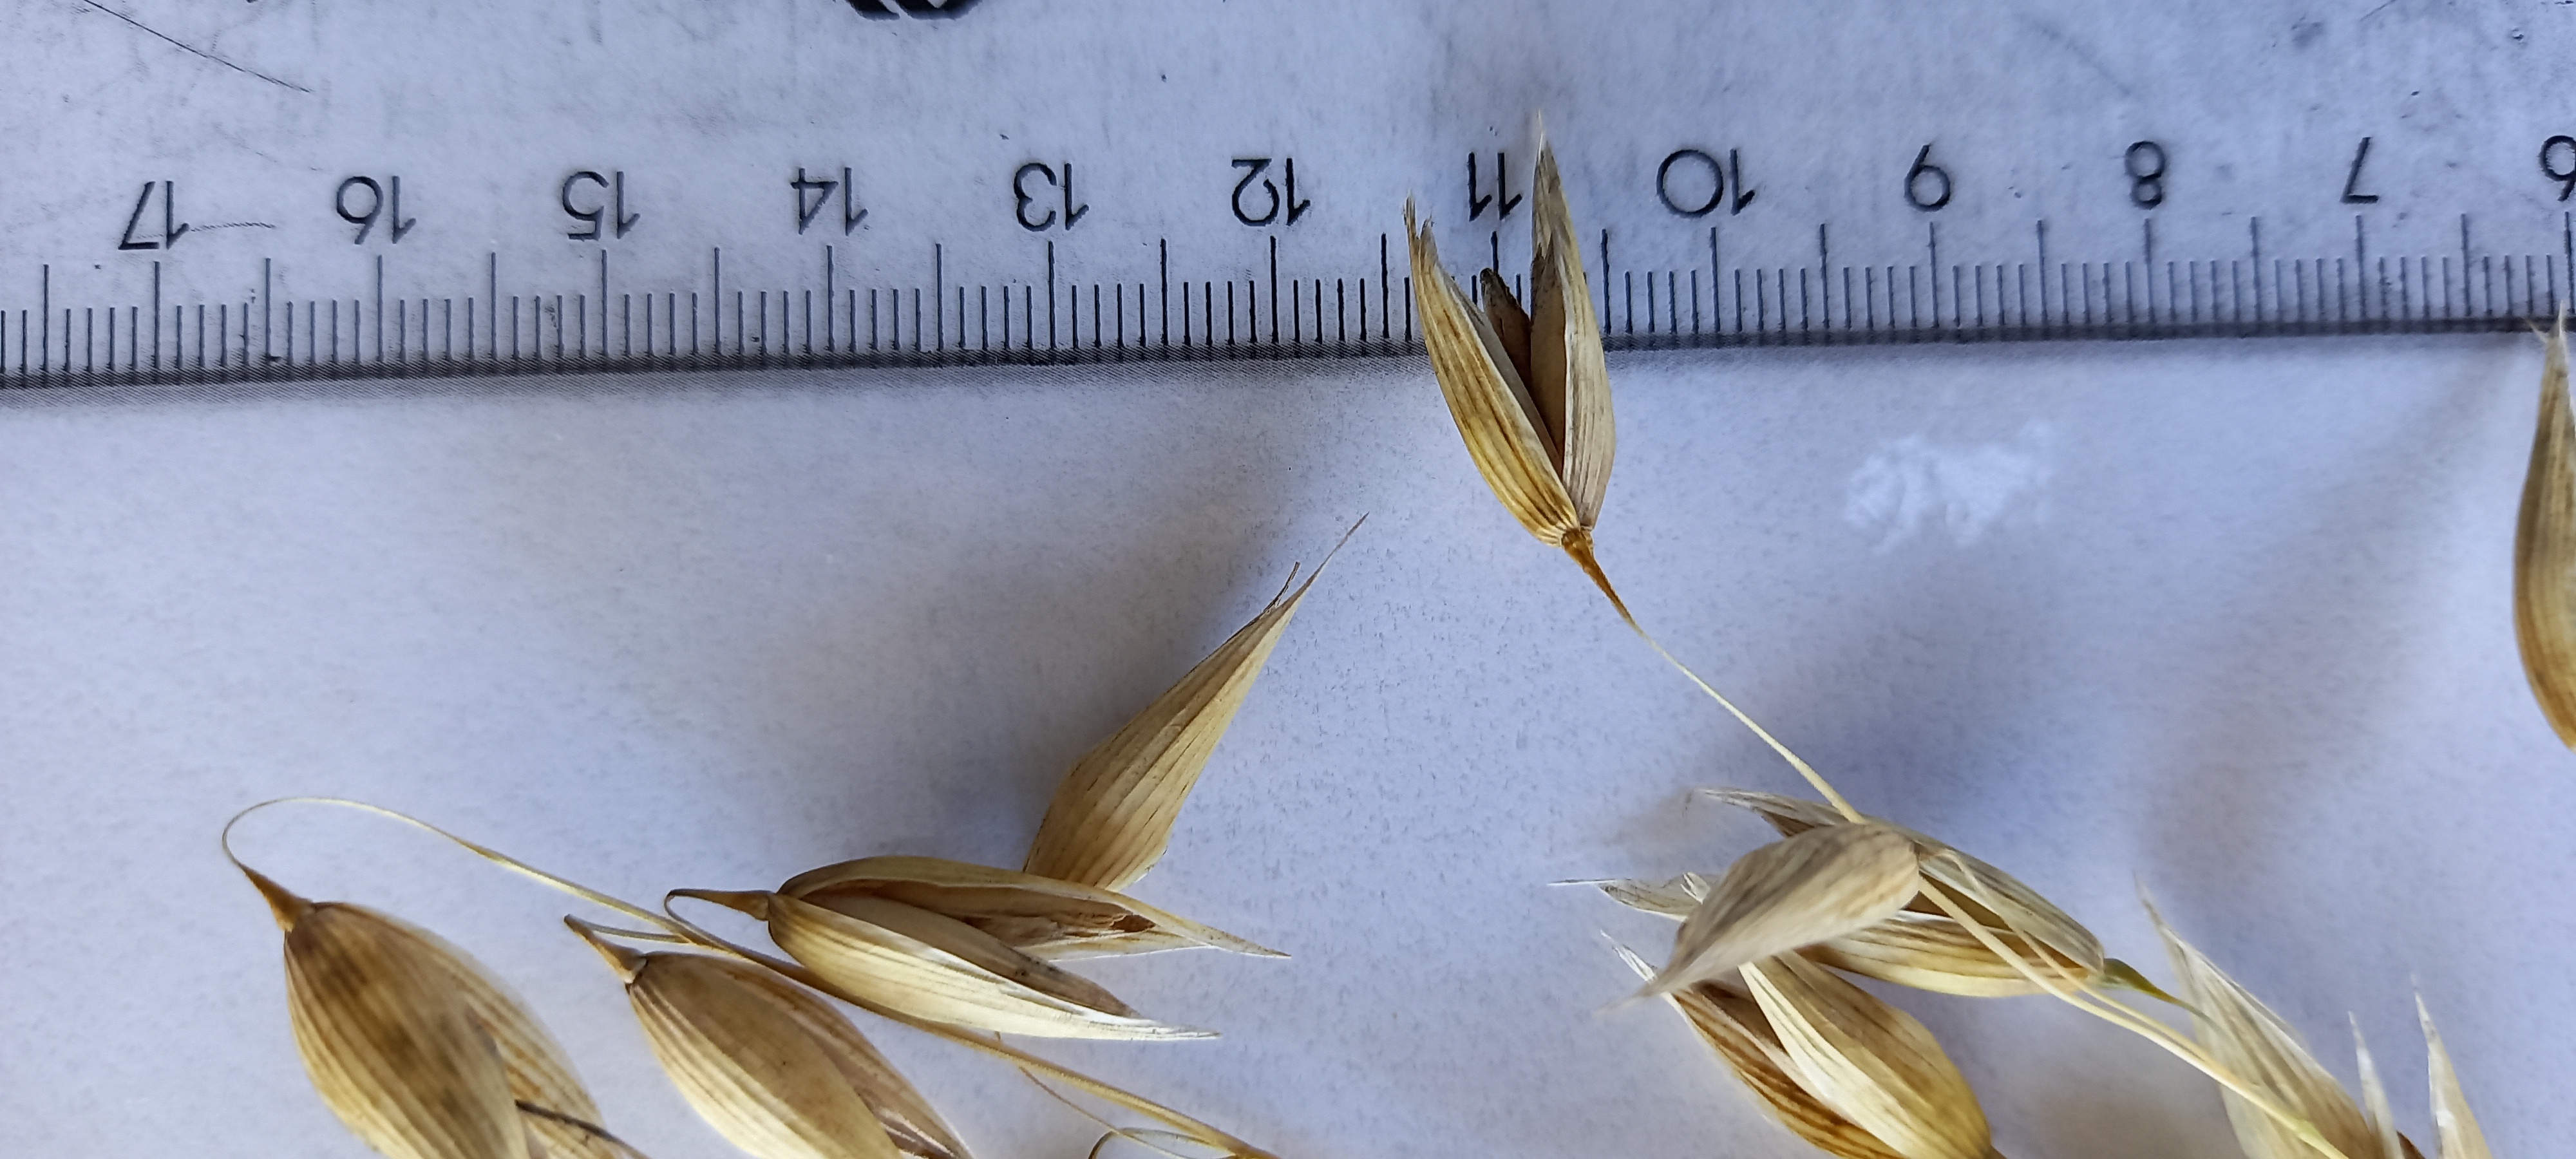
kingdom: Plantae
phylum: Tracheophyta
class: Liliopsida
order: Poales
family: Poaceae
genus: Avena
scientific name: Avena sativa
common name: Oat
